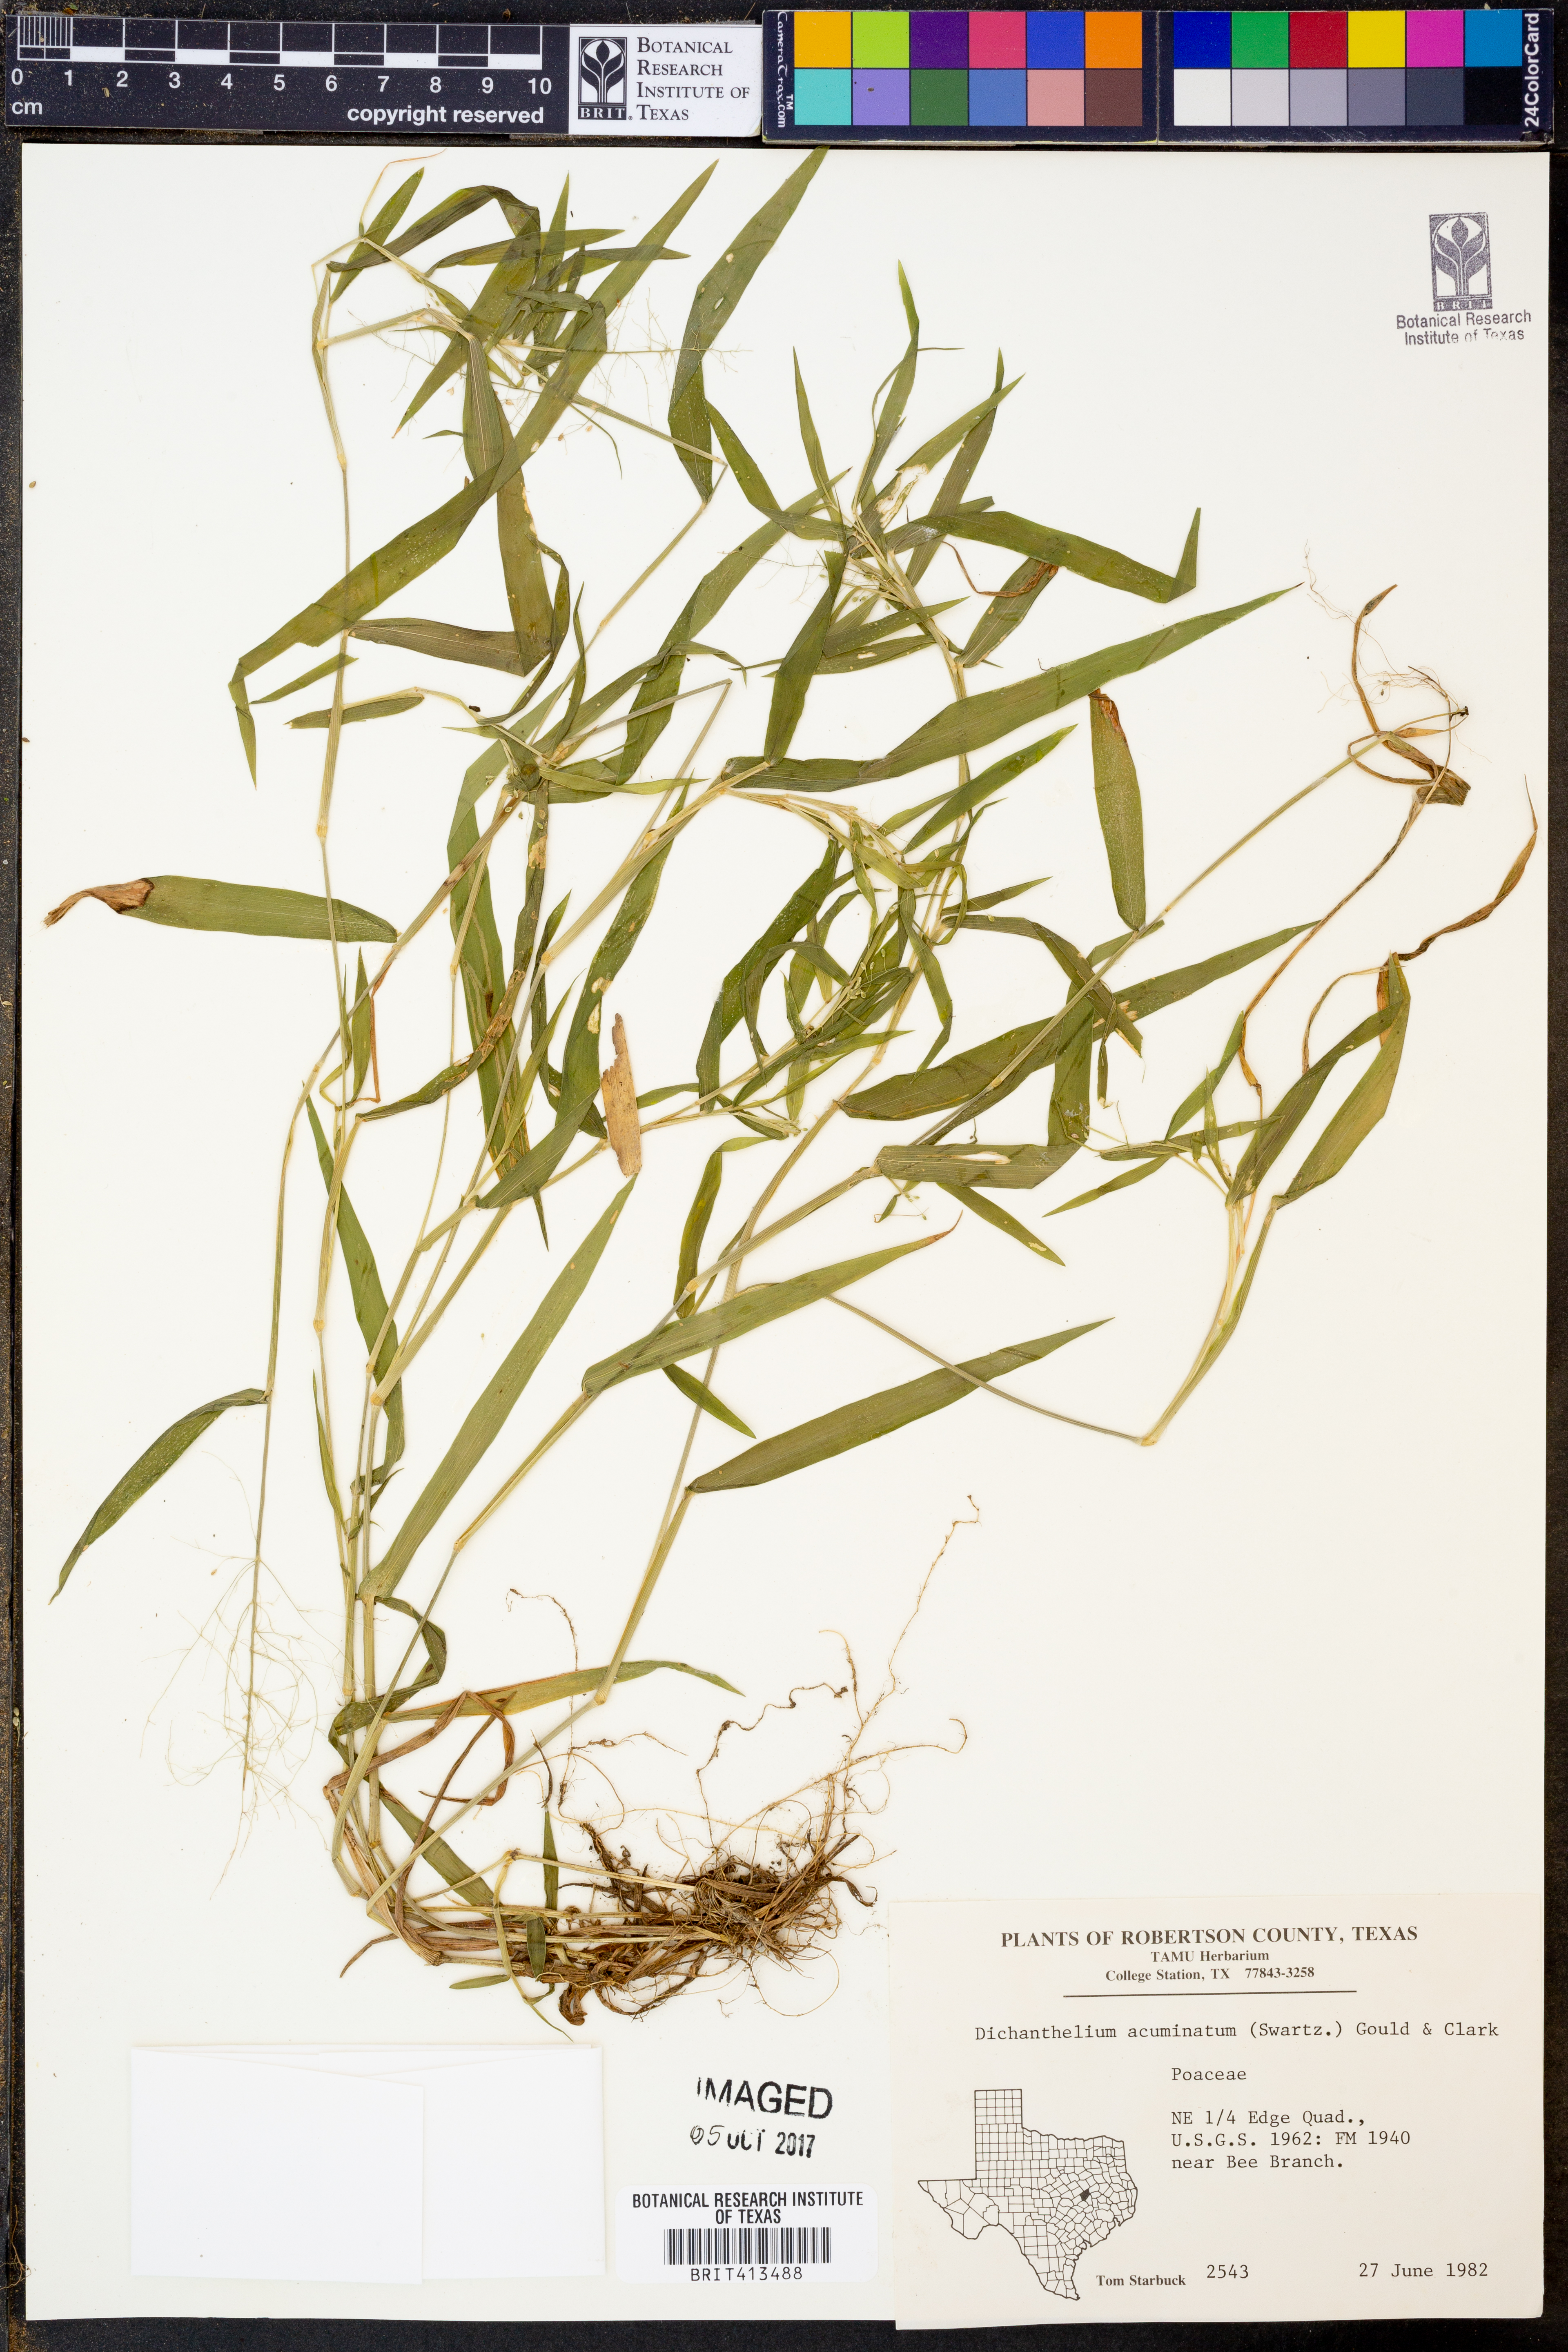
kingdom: Plantae
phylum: Tracheophyta
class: Liliopsida
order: Poales
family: Poaceae
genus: Dichanthelium
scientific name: Dichanthelium acuminatum
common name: Hairy panic grass
